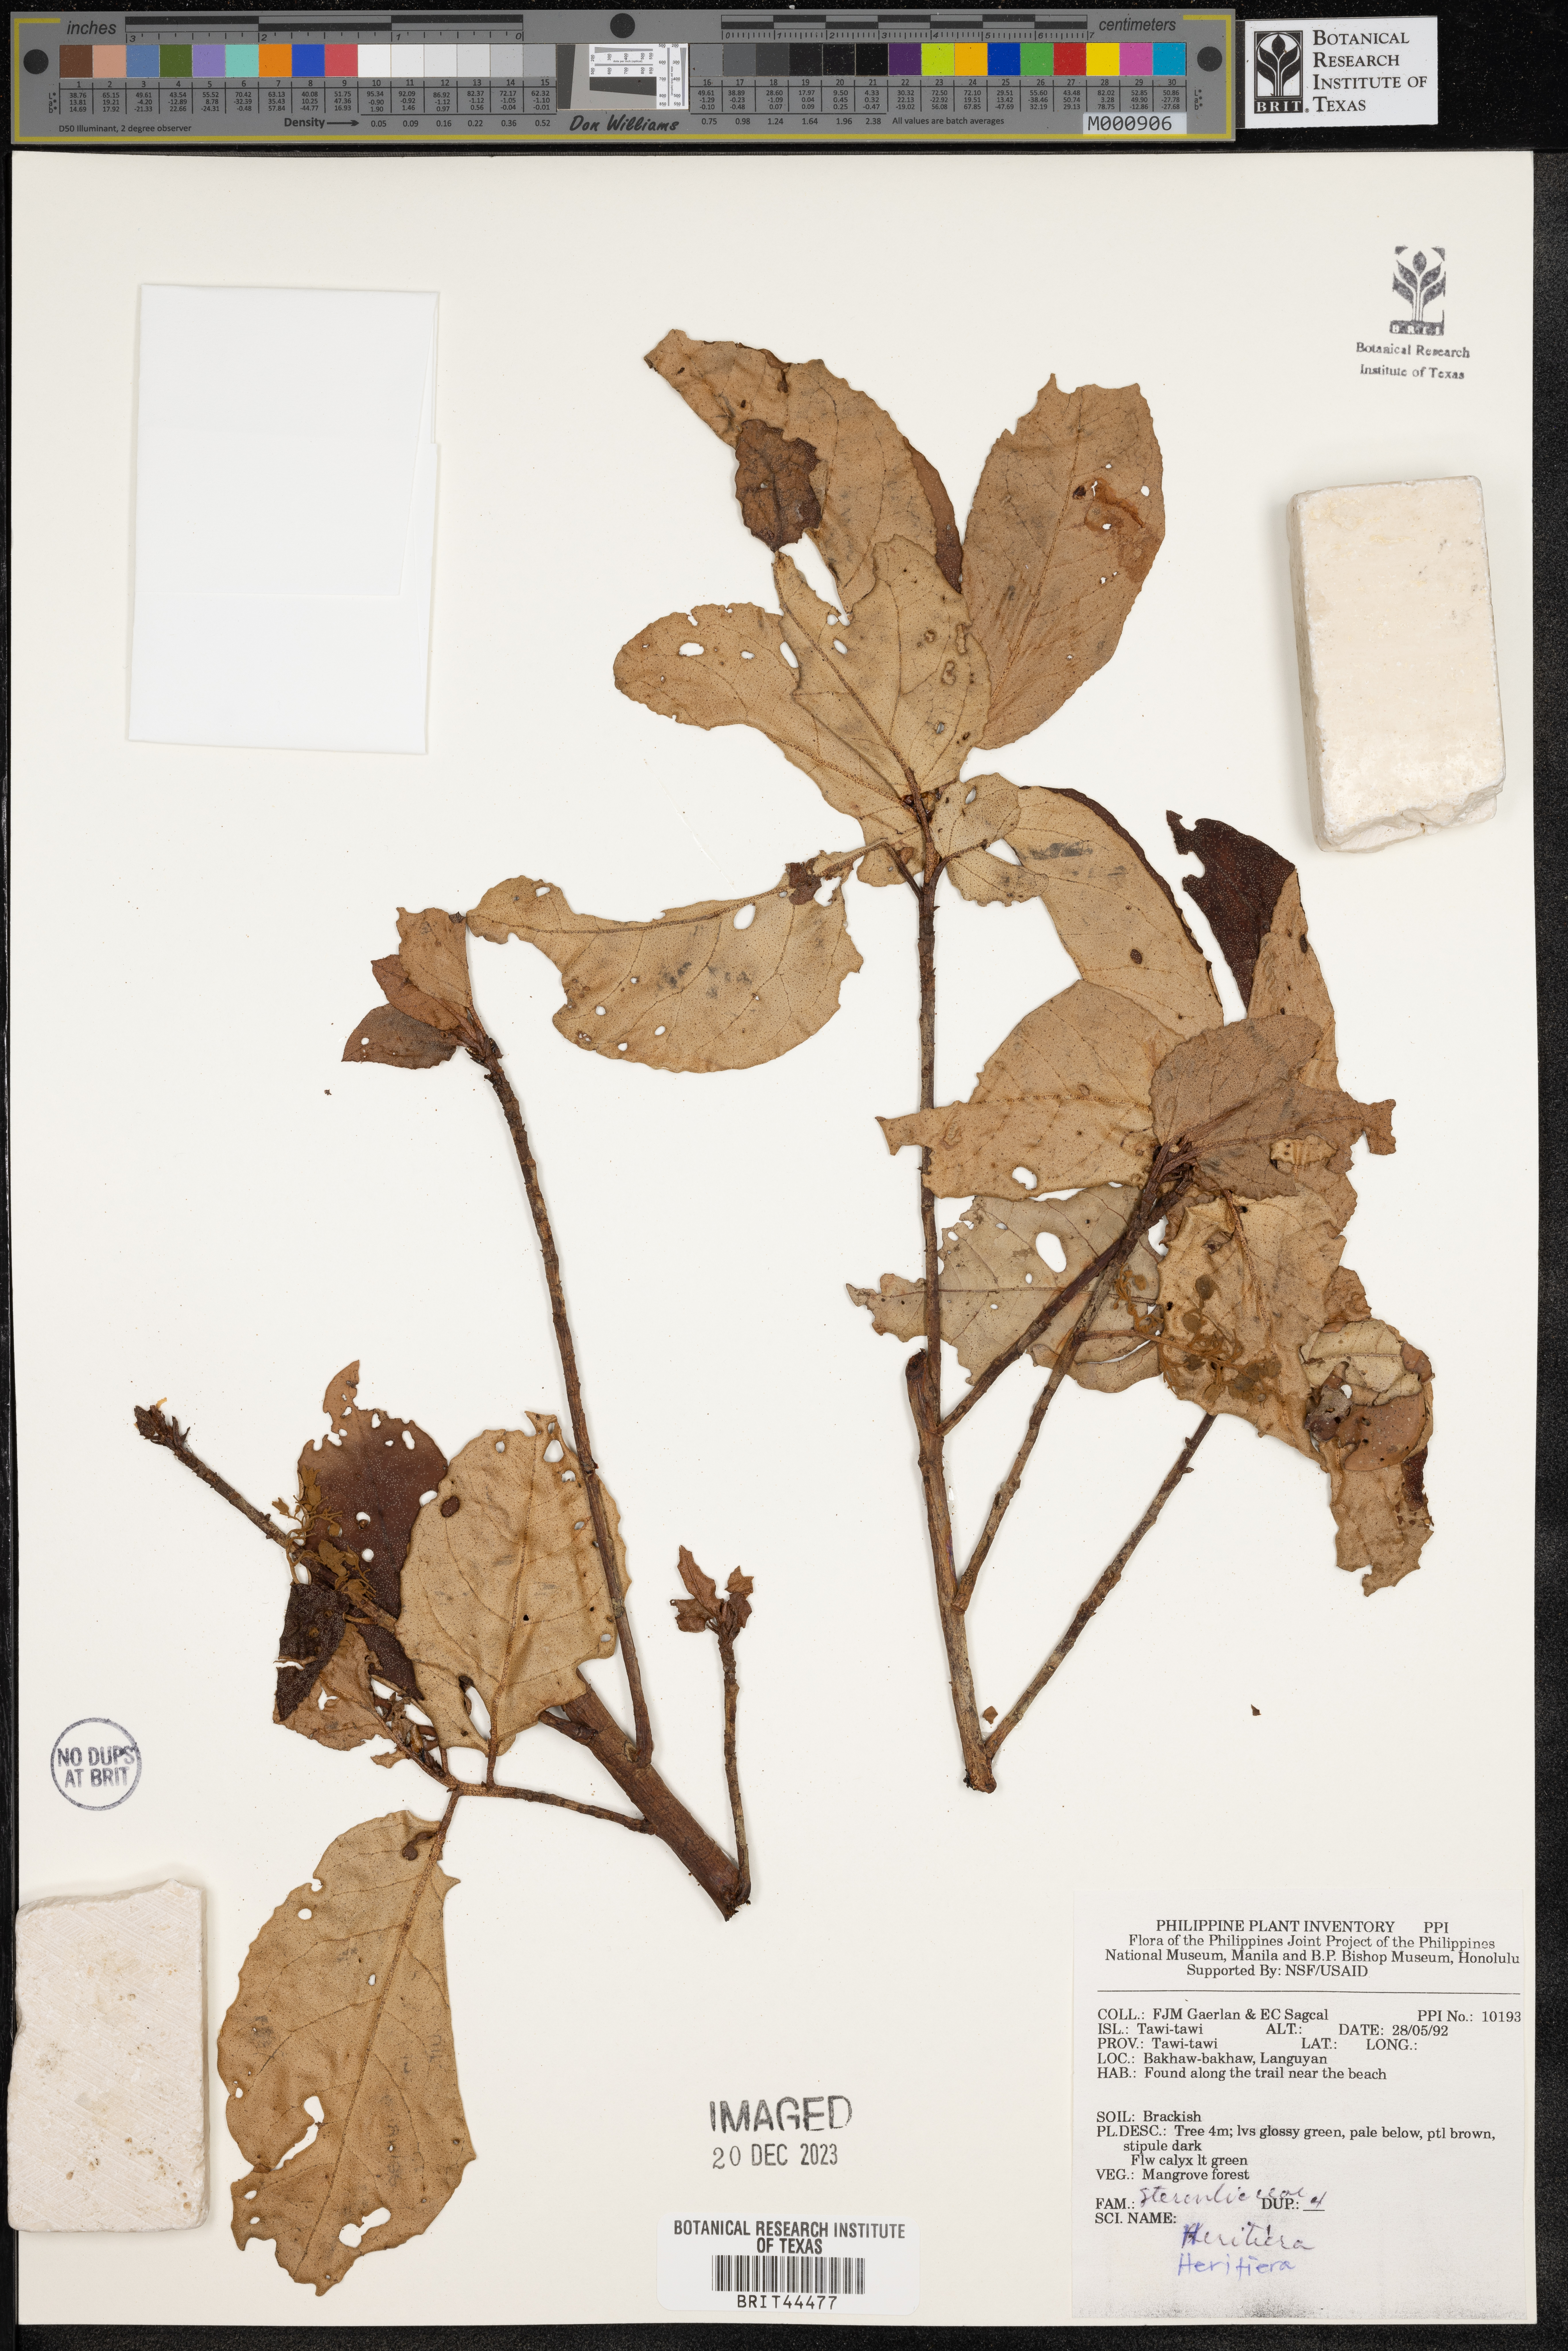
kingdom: Plantae
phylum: Tracheophyta
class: Magnoliopsida
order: Malvales
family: Malvaceae
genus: Heritiera
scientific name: Heritiera
